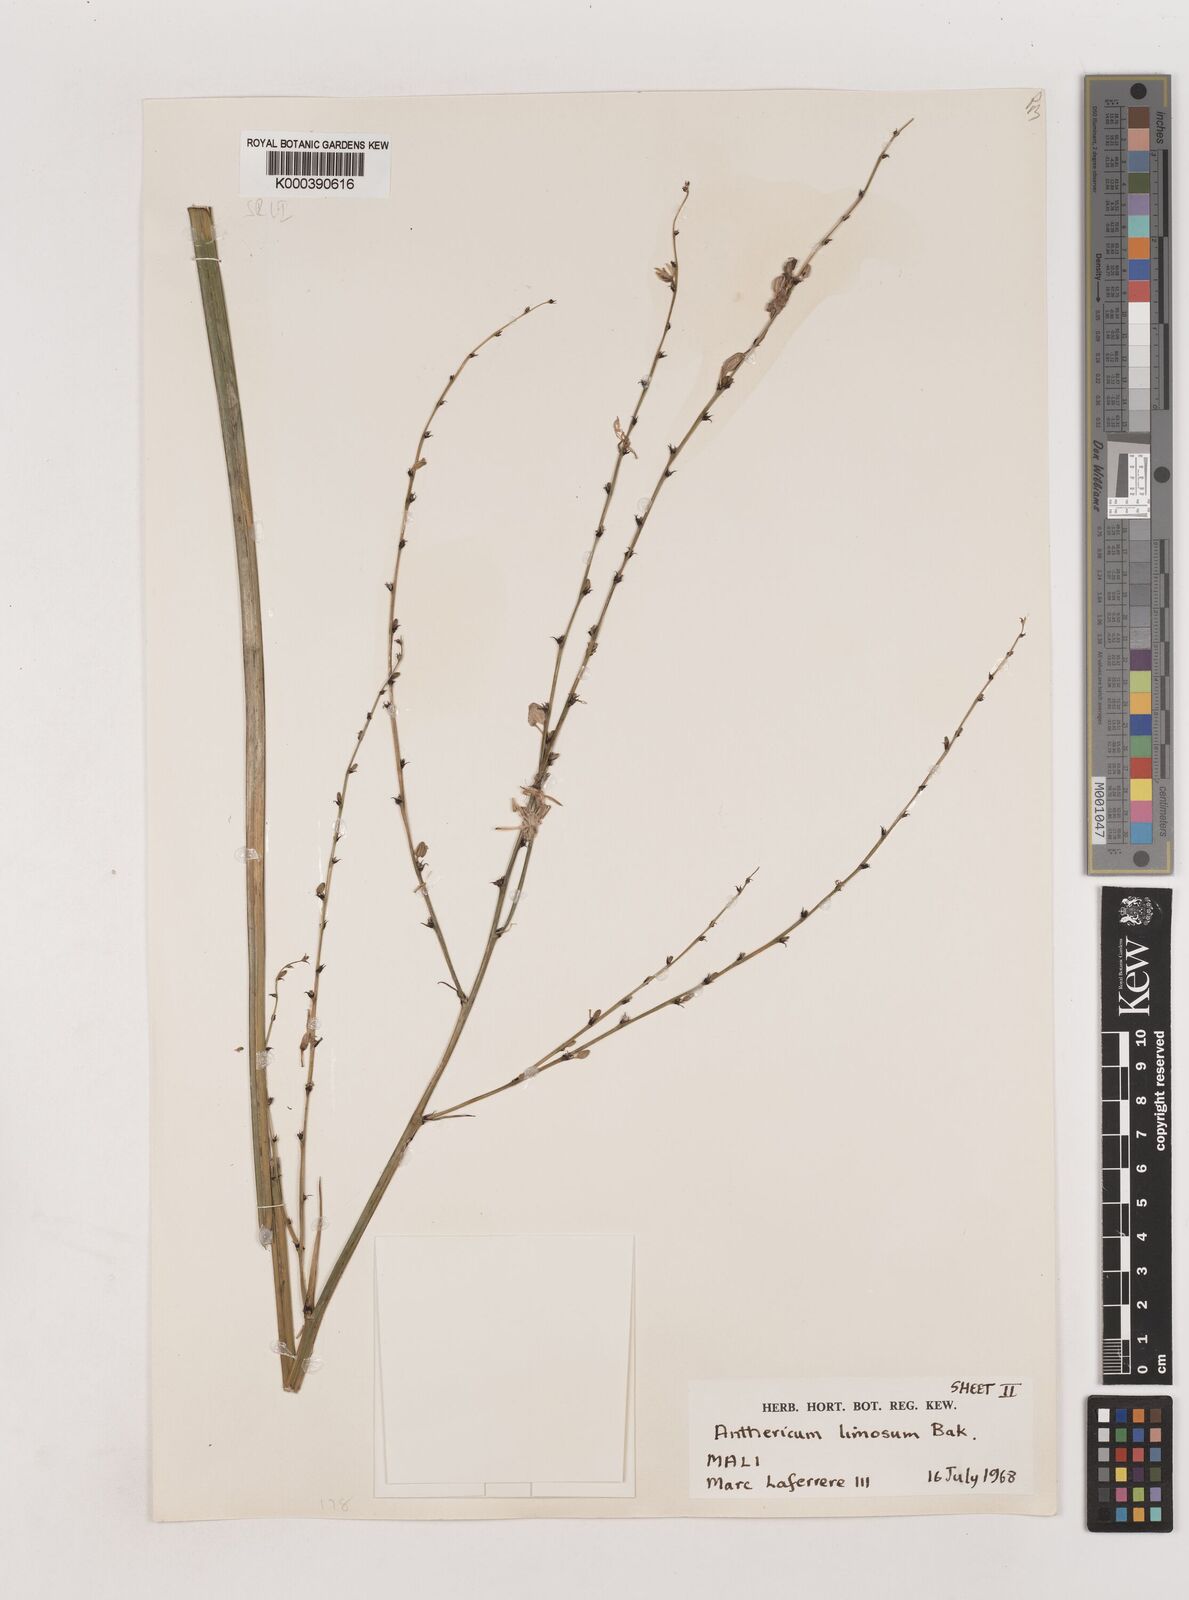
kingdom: Plantae
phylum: Tracheophyta
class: Liliopsida
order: Asparagales
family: Asparagaceae
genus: Chlorophytum
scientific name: Chlorophytum limosum
